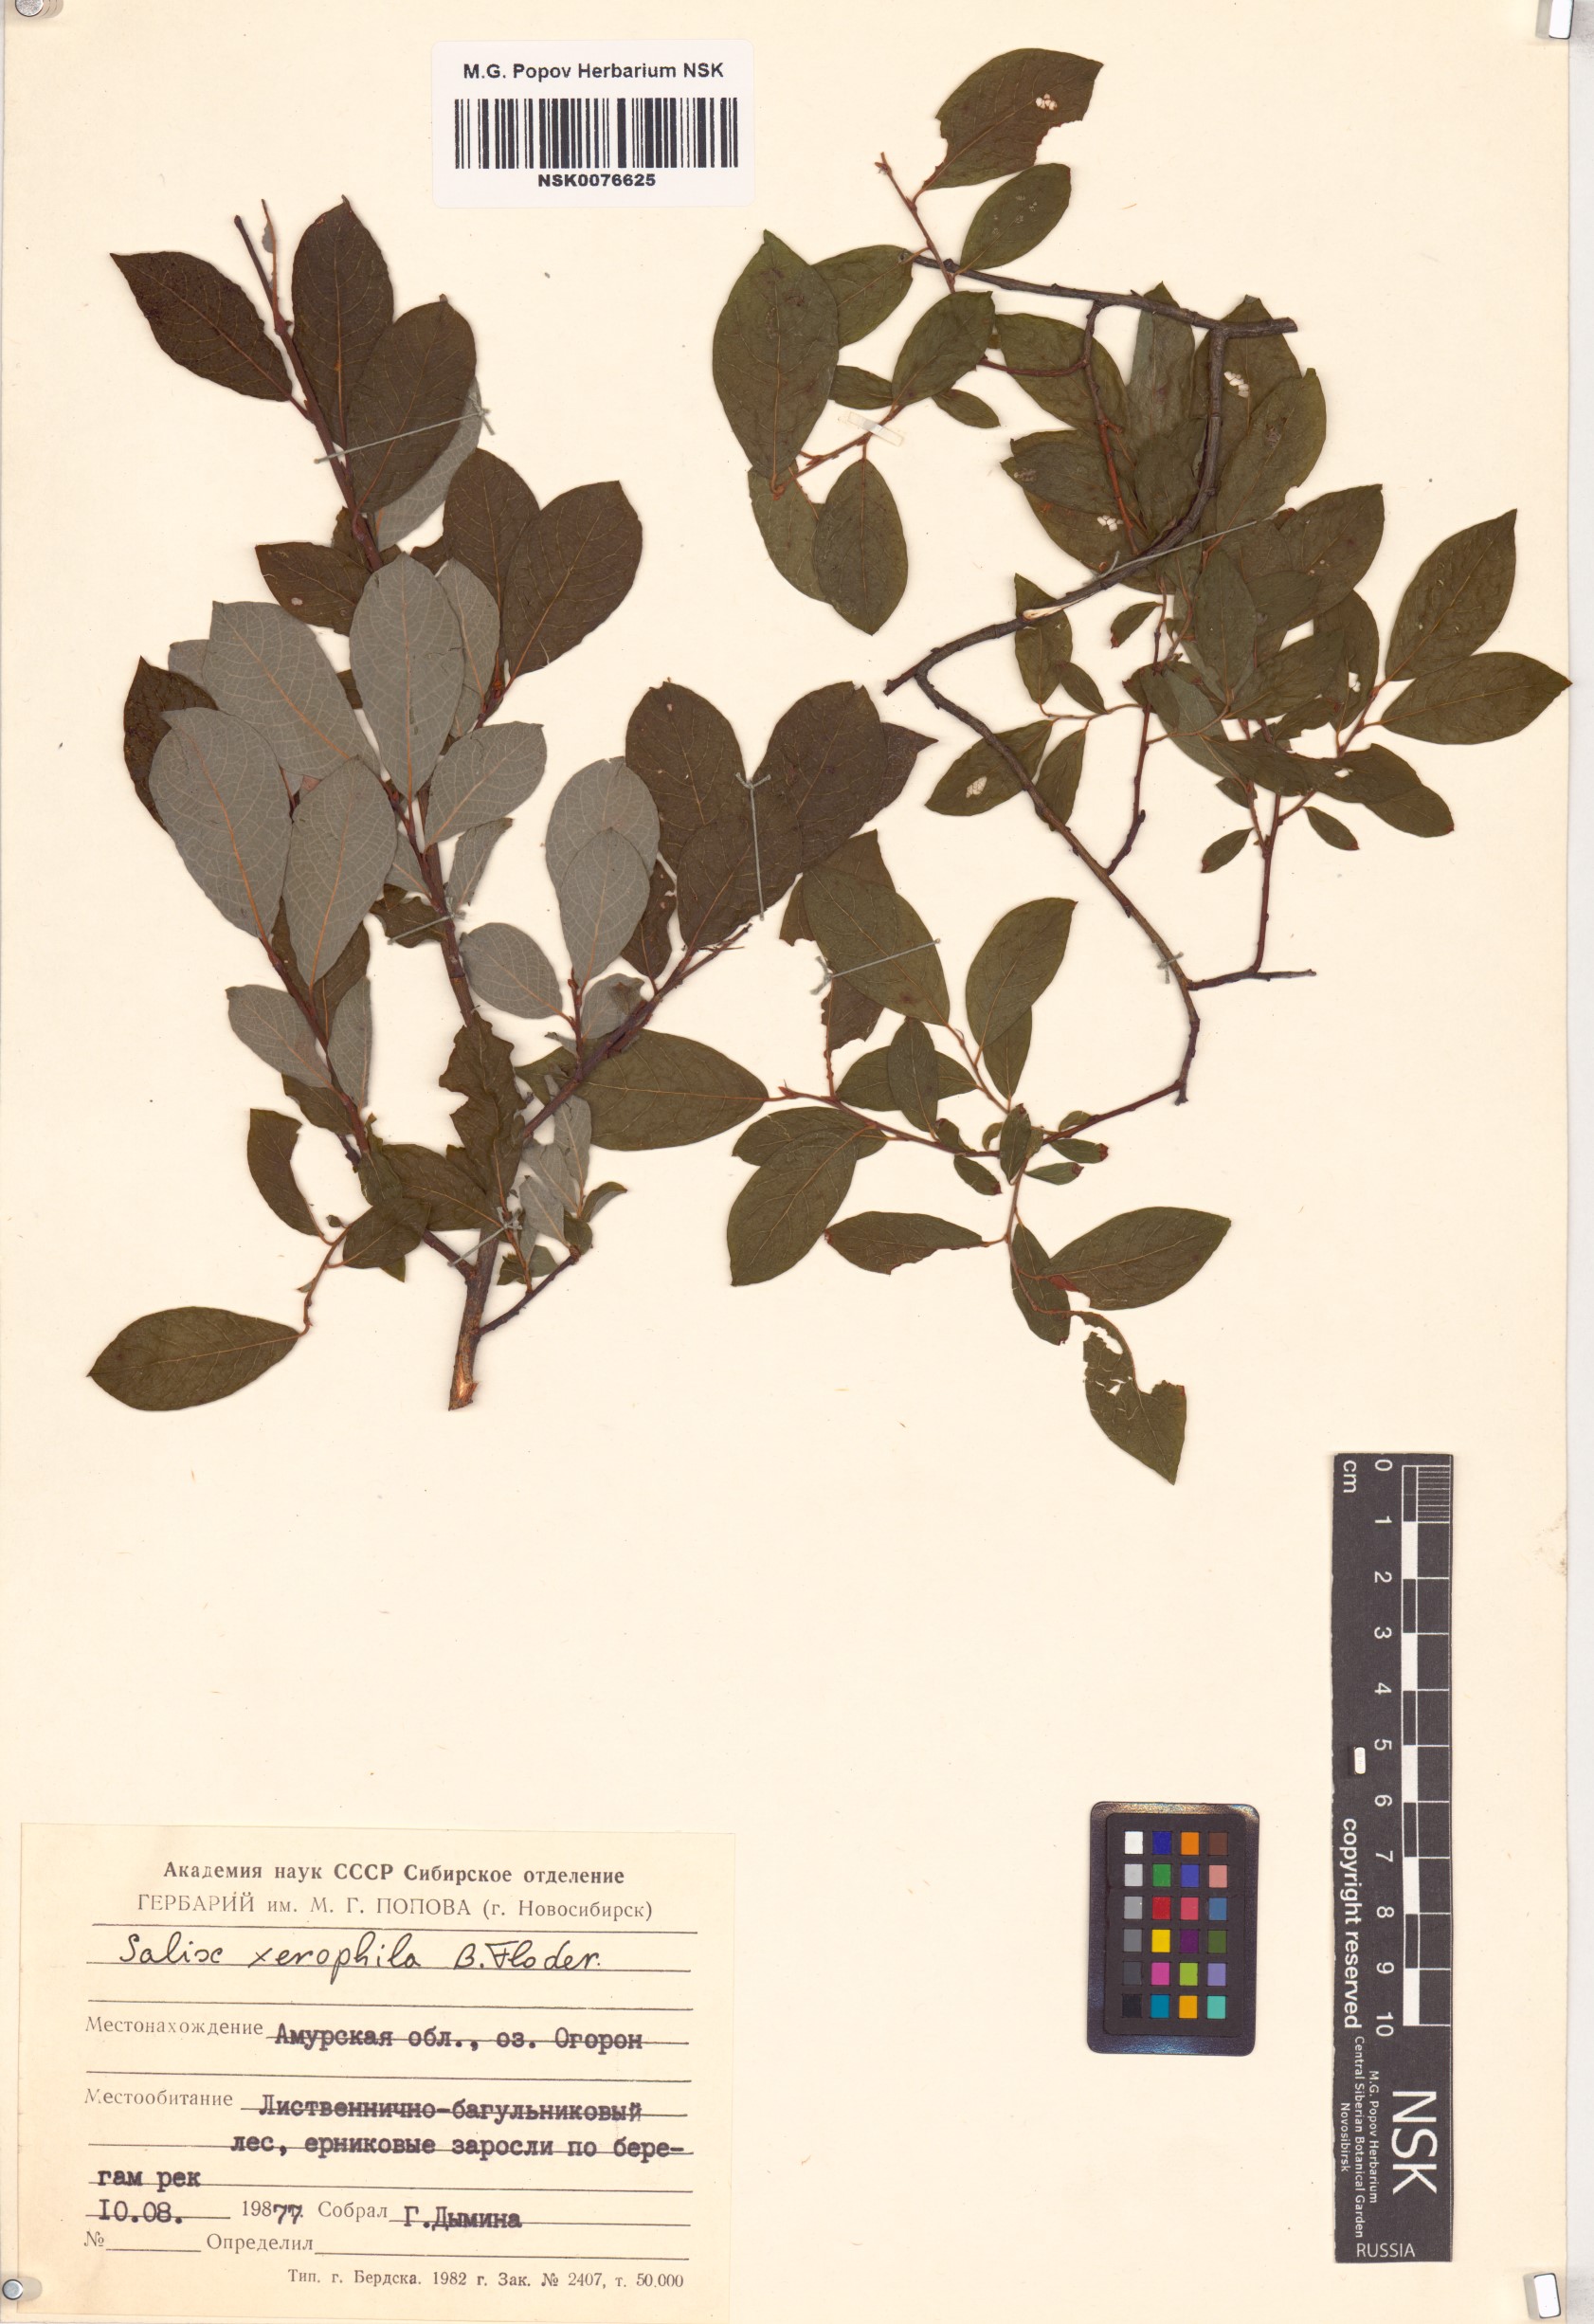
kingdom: Plantae
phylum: Tracheophyta
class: Magnoliopsida
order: Malpighiales
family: Salicaceae
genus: Salix
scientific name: Salix bebbiana
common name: Bebb's willow
